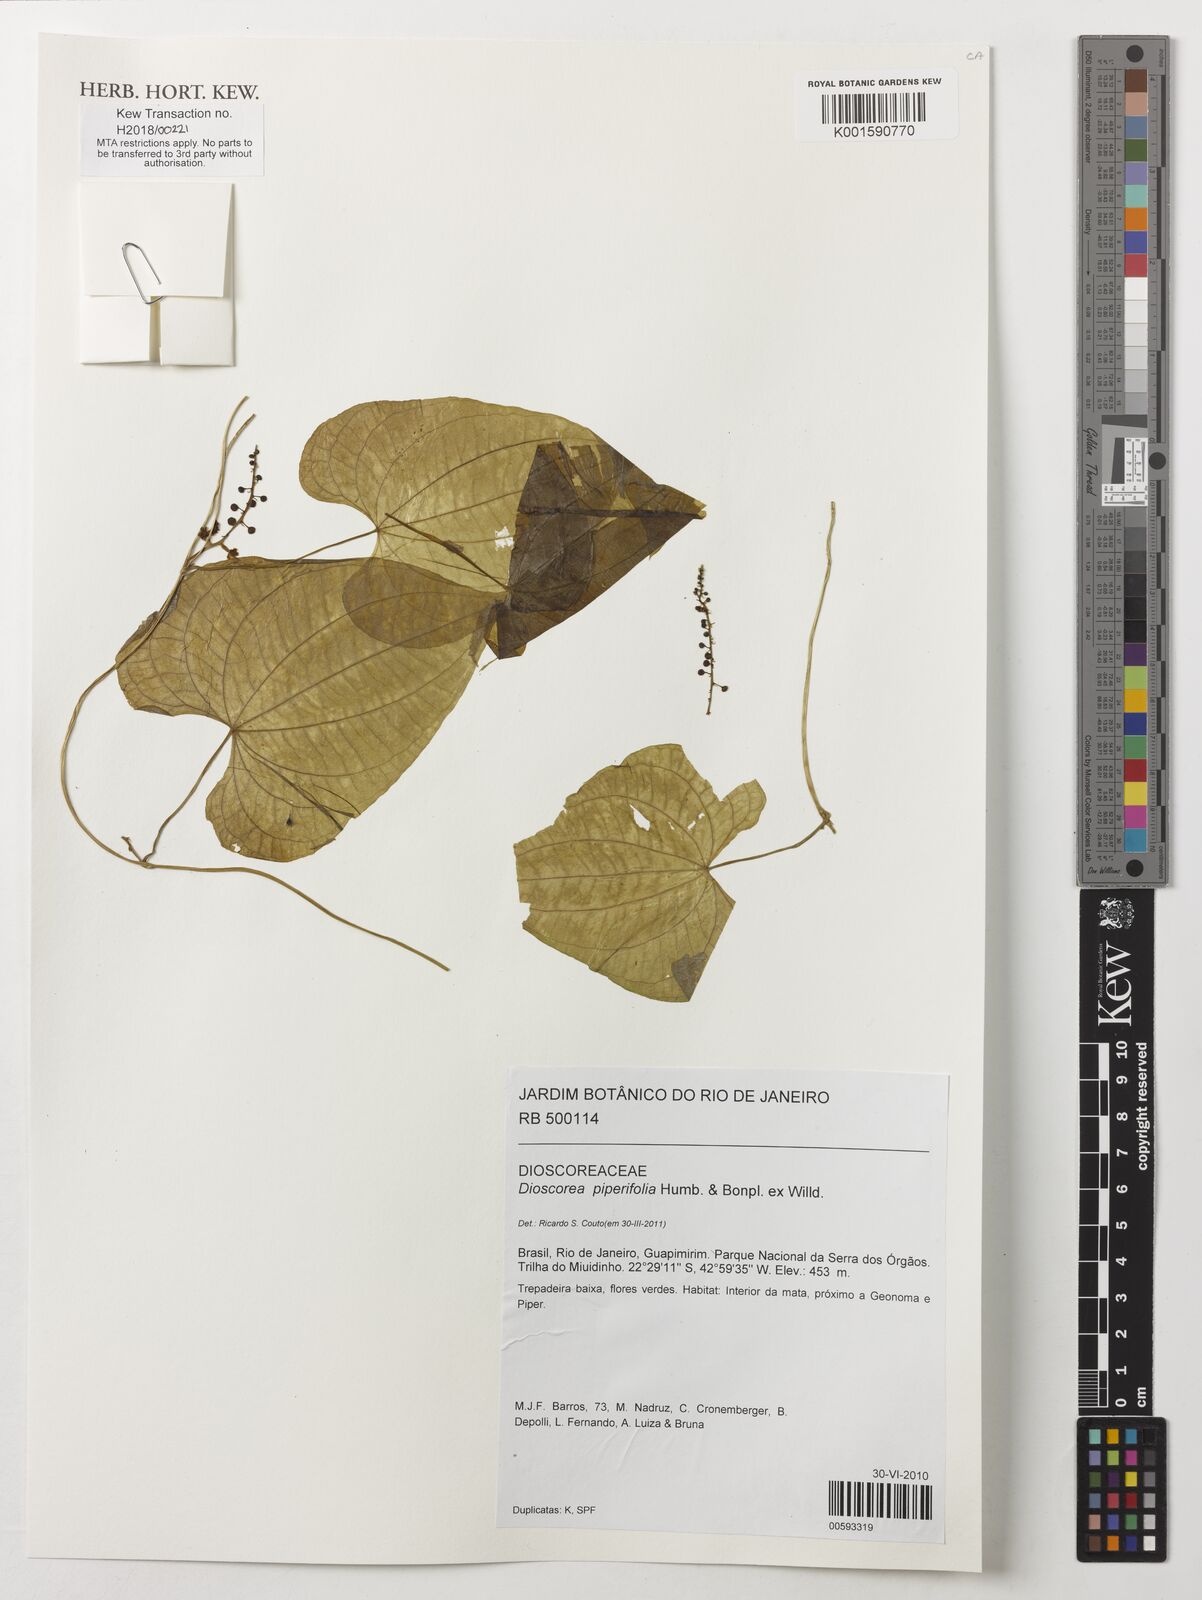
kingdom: Plantae
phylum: Tracheophyta
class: Liliopsida
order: Dioscoreales
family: Dioscoreaceae
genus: Dioscorea
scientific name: Dioscorea piperifolia
